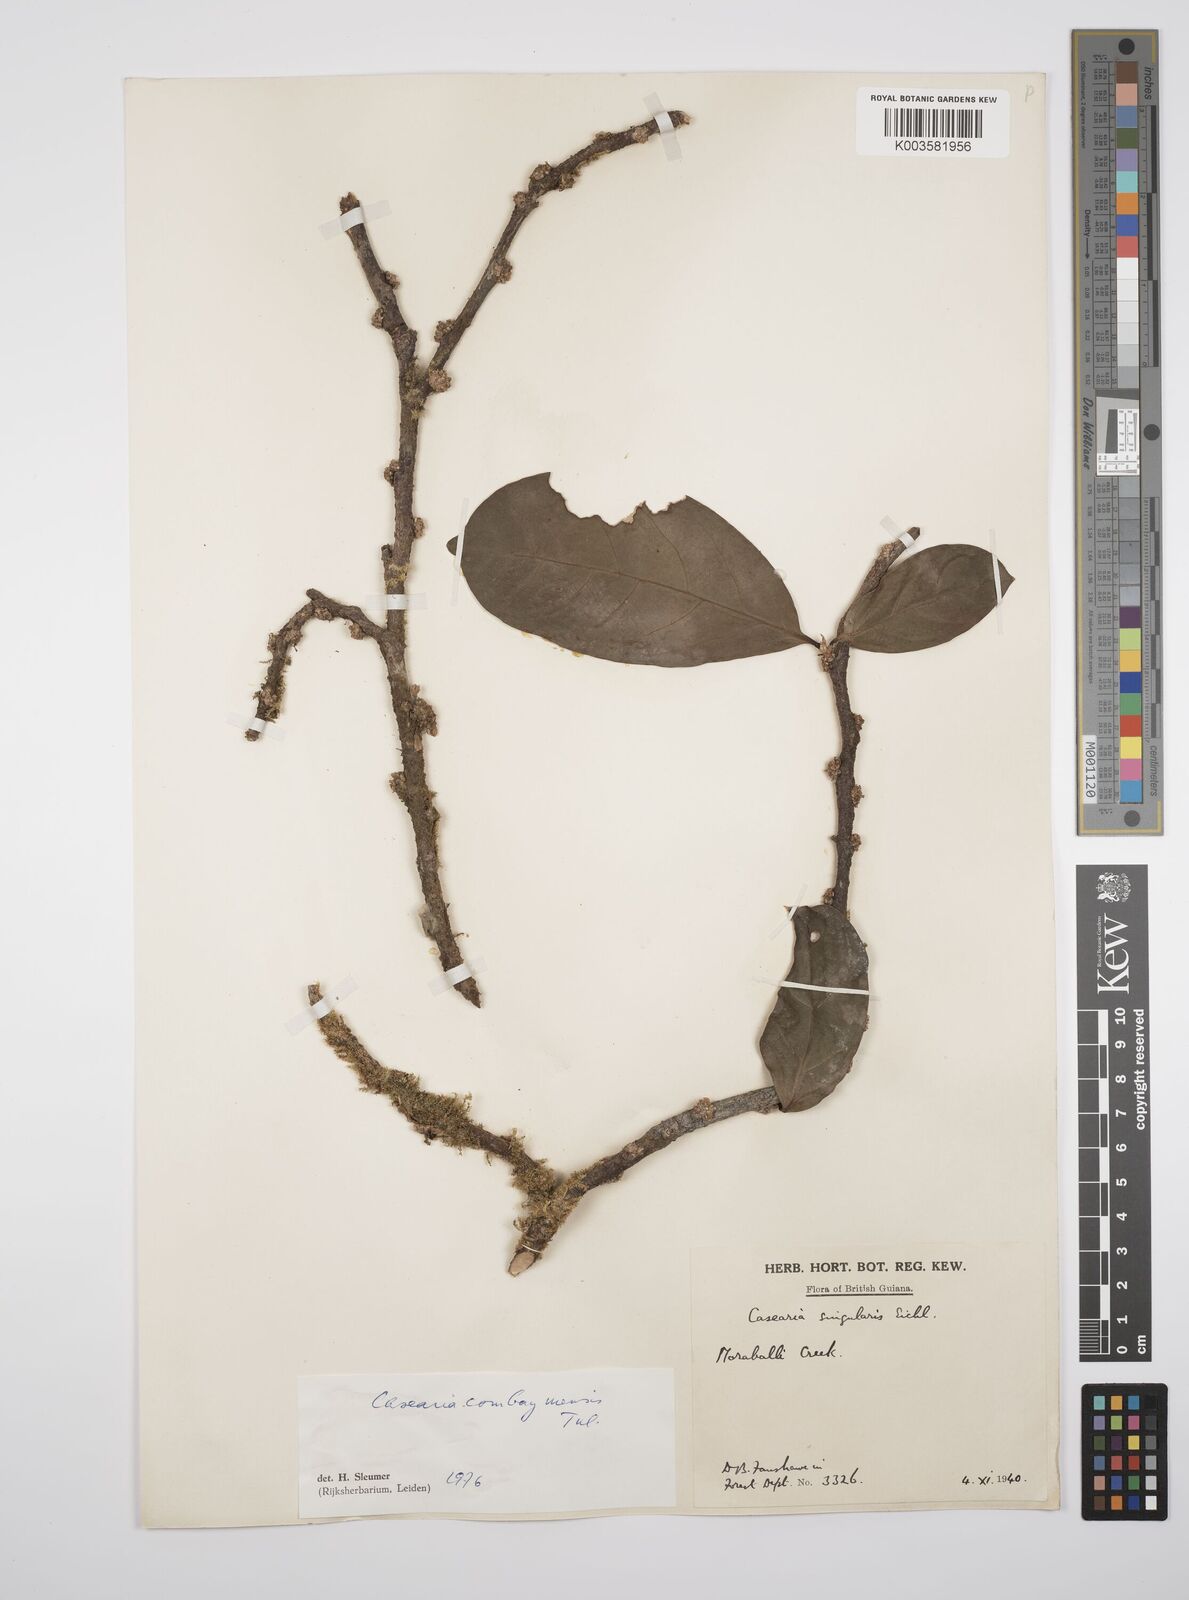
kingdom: Plantae
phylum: Tracheophyta
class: Magnoliopsida
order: Malpighiales
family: Salicaceae
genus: Casearia
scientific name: Casearia combaymensis
